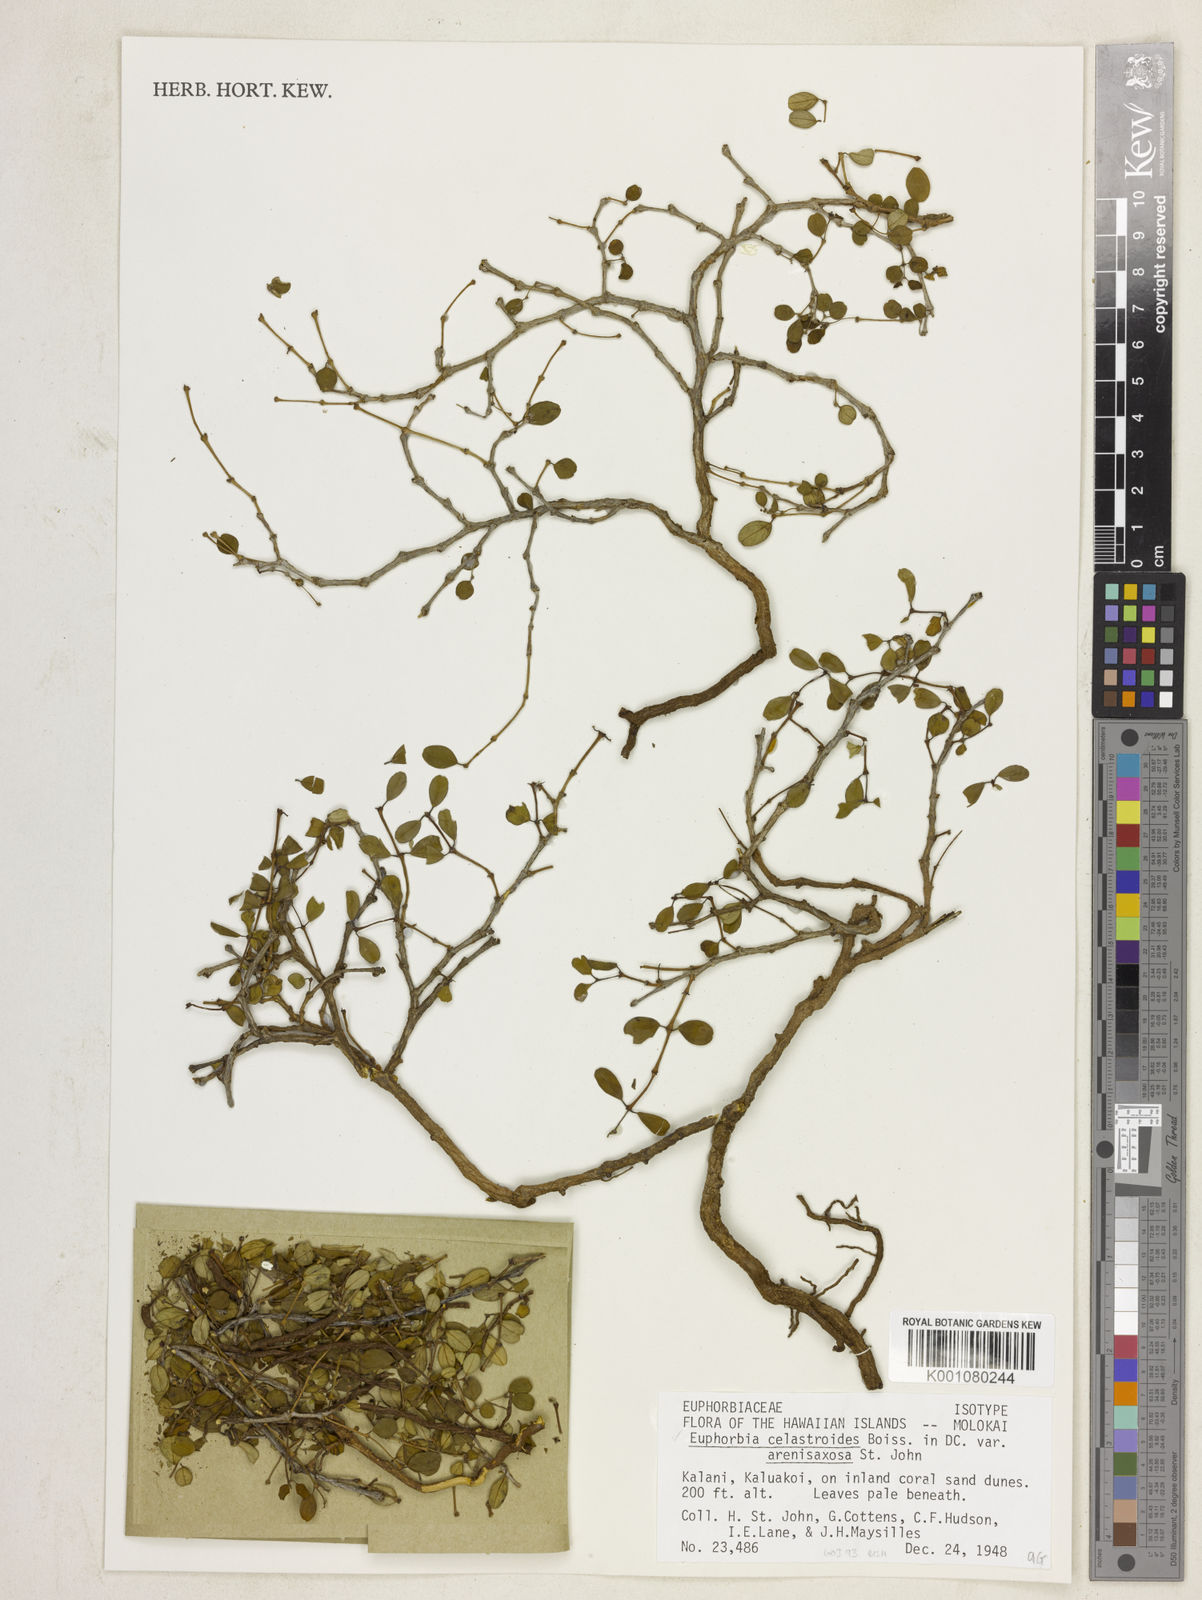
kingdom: Plantae
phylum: Tracheophyta
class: Magnoliopsida
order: Malpighiales
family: Euphorbiaceae
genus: Euphorbia
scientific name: Euphorbia celastroides
